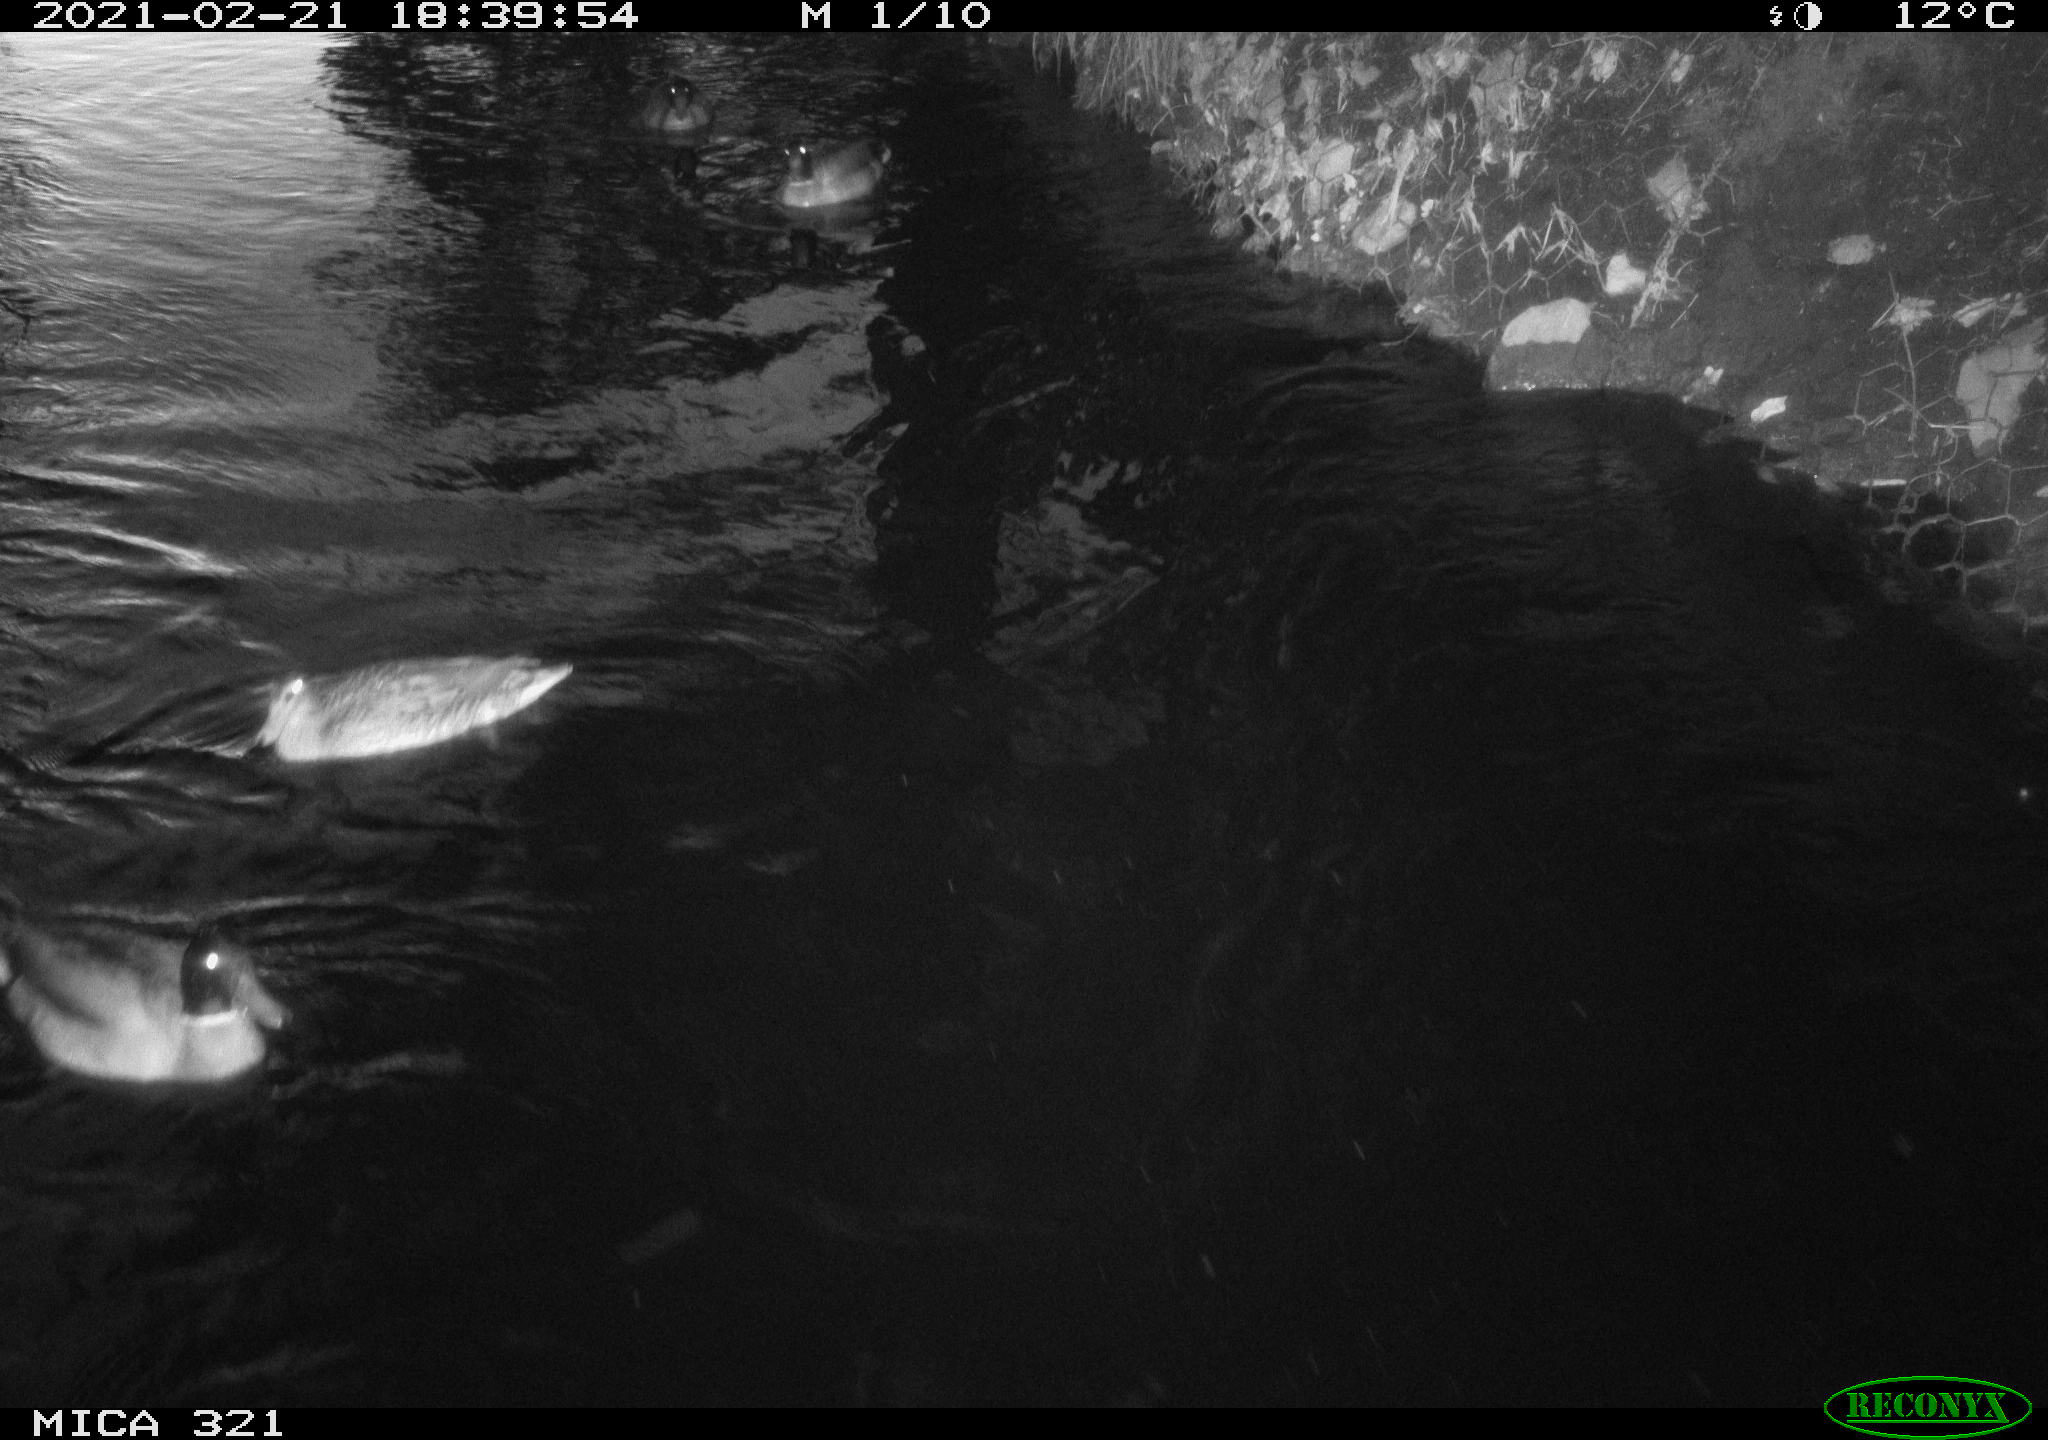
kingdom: Animalia
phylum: Chordata
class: Aves
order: Anseriformes
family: Anatidae
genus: Anas
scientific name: Anas platyrhynchos
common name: Mallard
